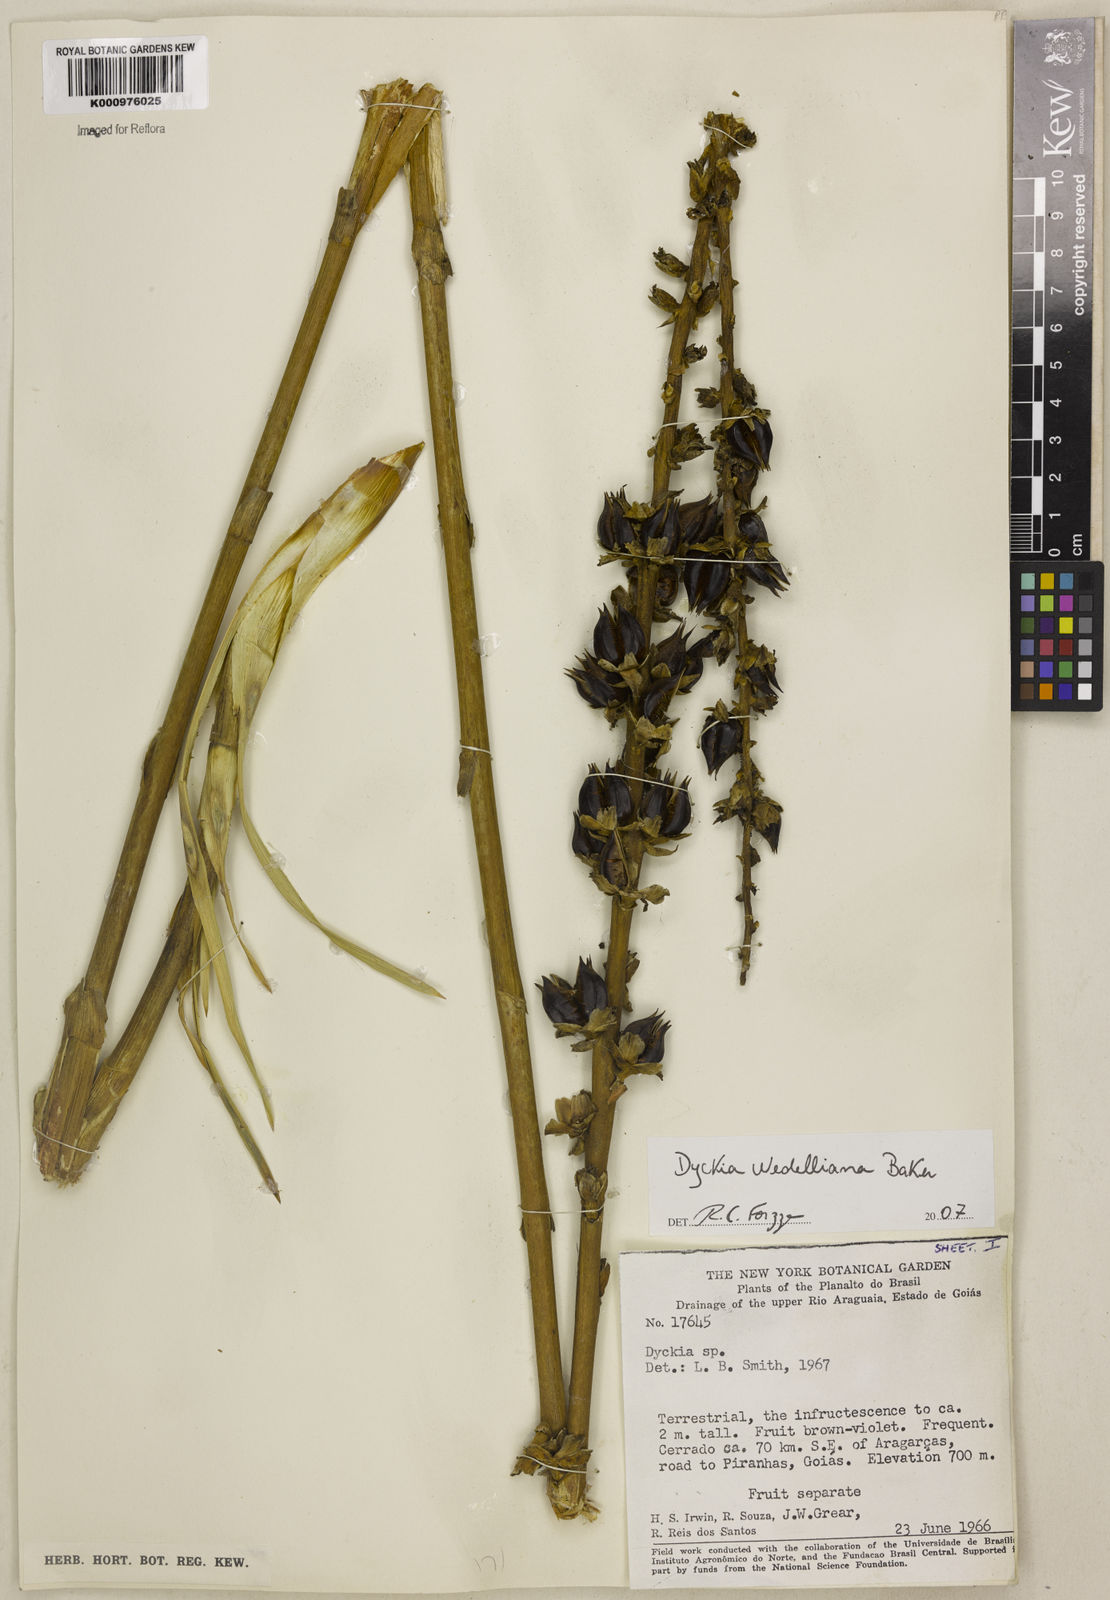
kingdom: Plantae
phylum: Tracheophyta
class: Liliopsida
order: Poales
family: Bromeliaceae
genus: Dyckia
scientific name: Dyckia weddelliana
